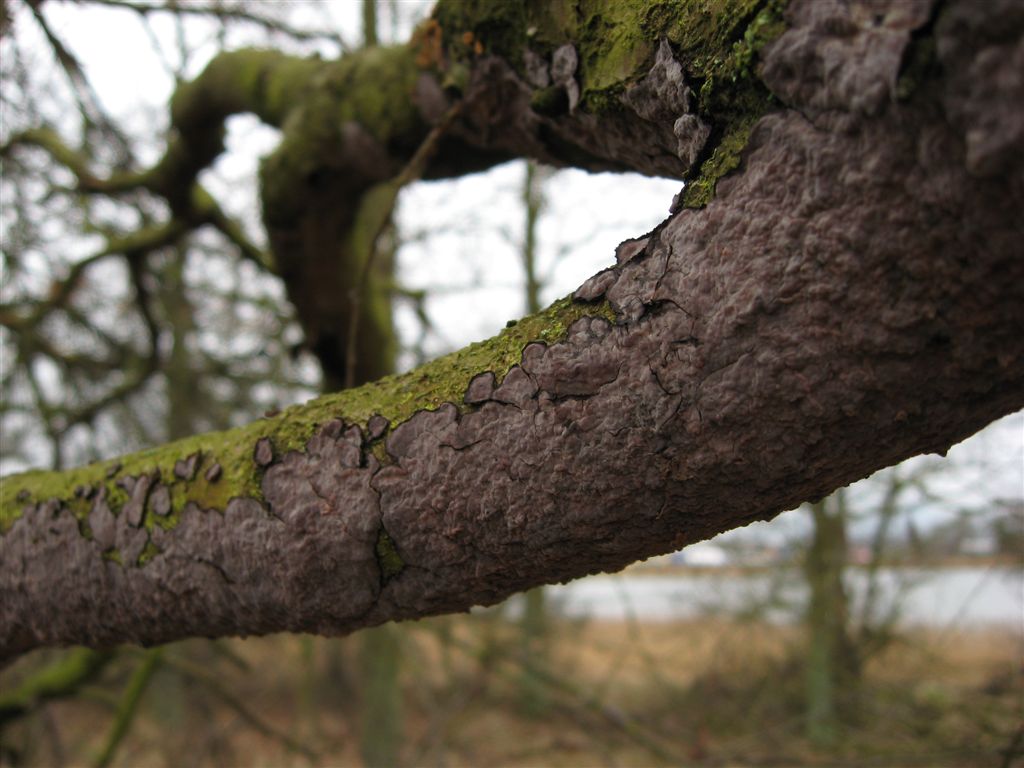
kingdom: Fungi
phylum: Basidiomycota
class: Agaricomycetes
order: Russulales
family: Peniophoraceae
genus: Peniophora
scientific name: Peniophora quercina
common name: ege-voksskind
